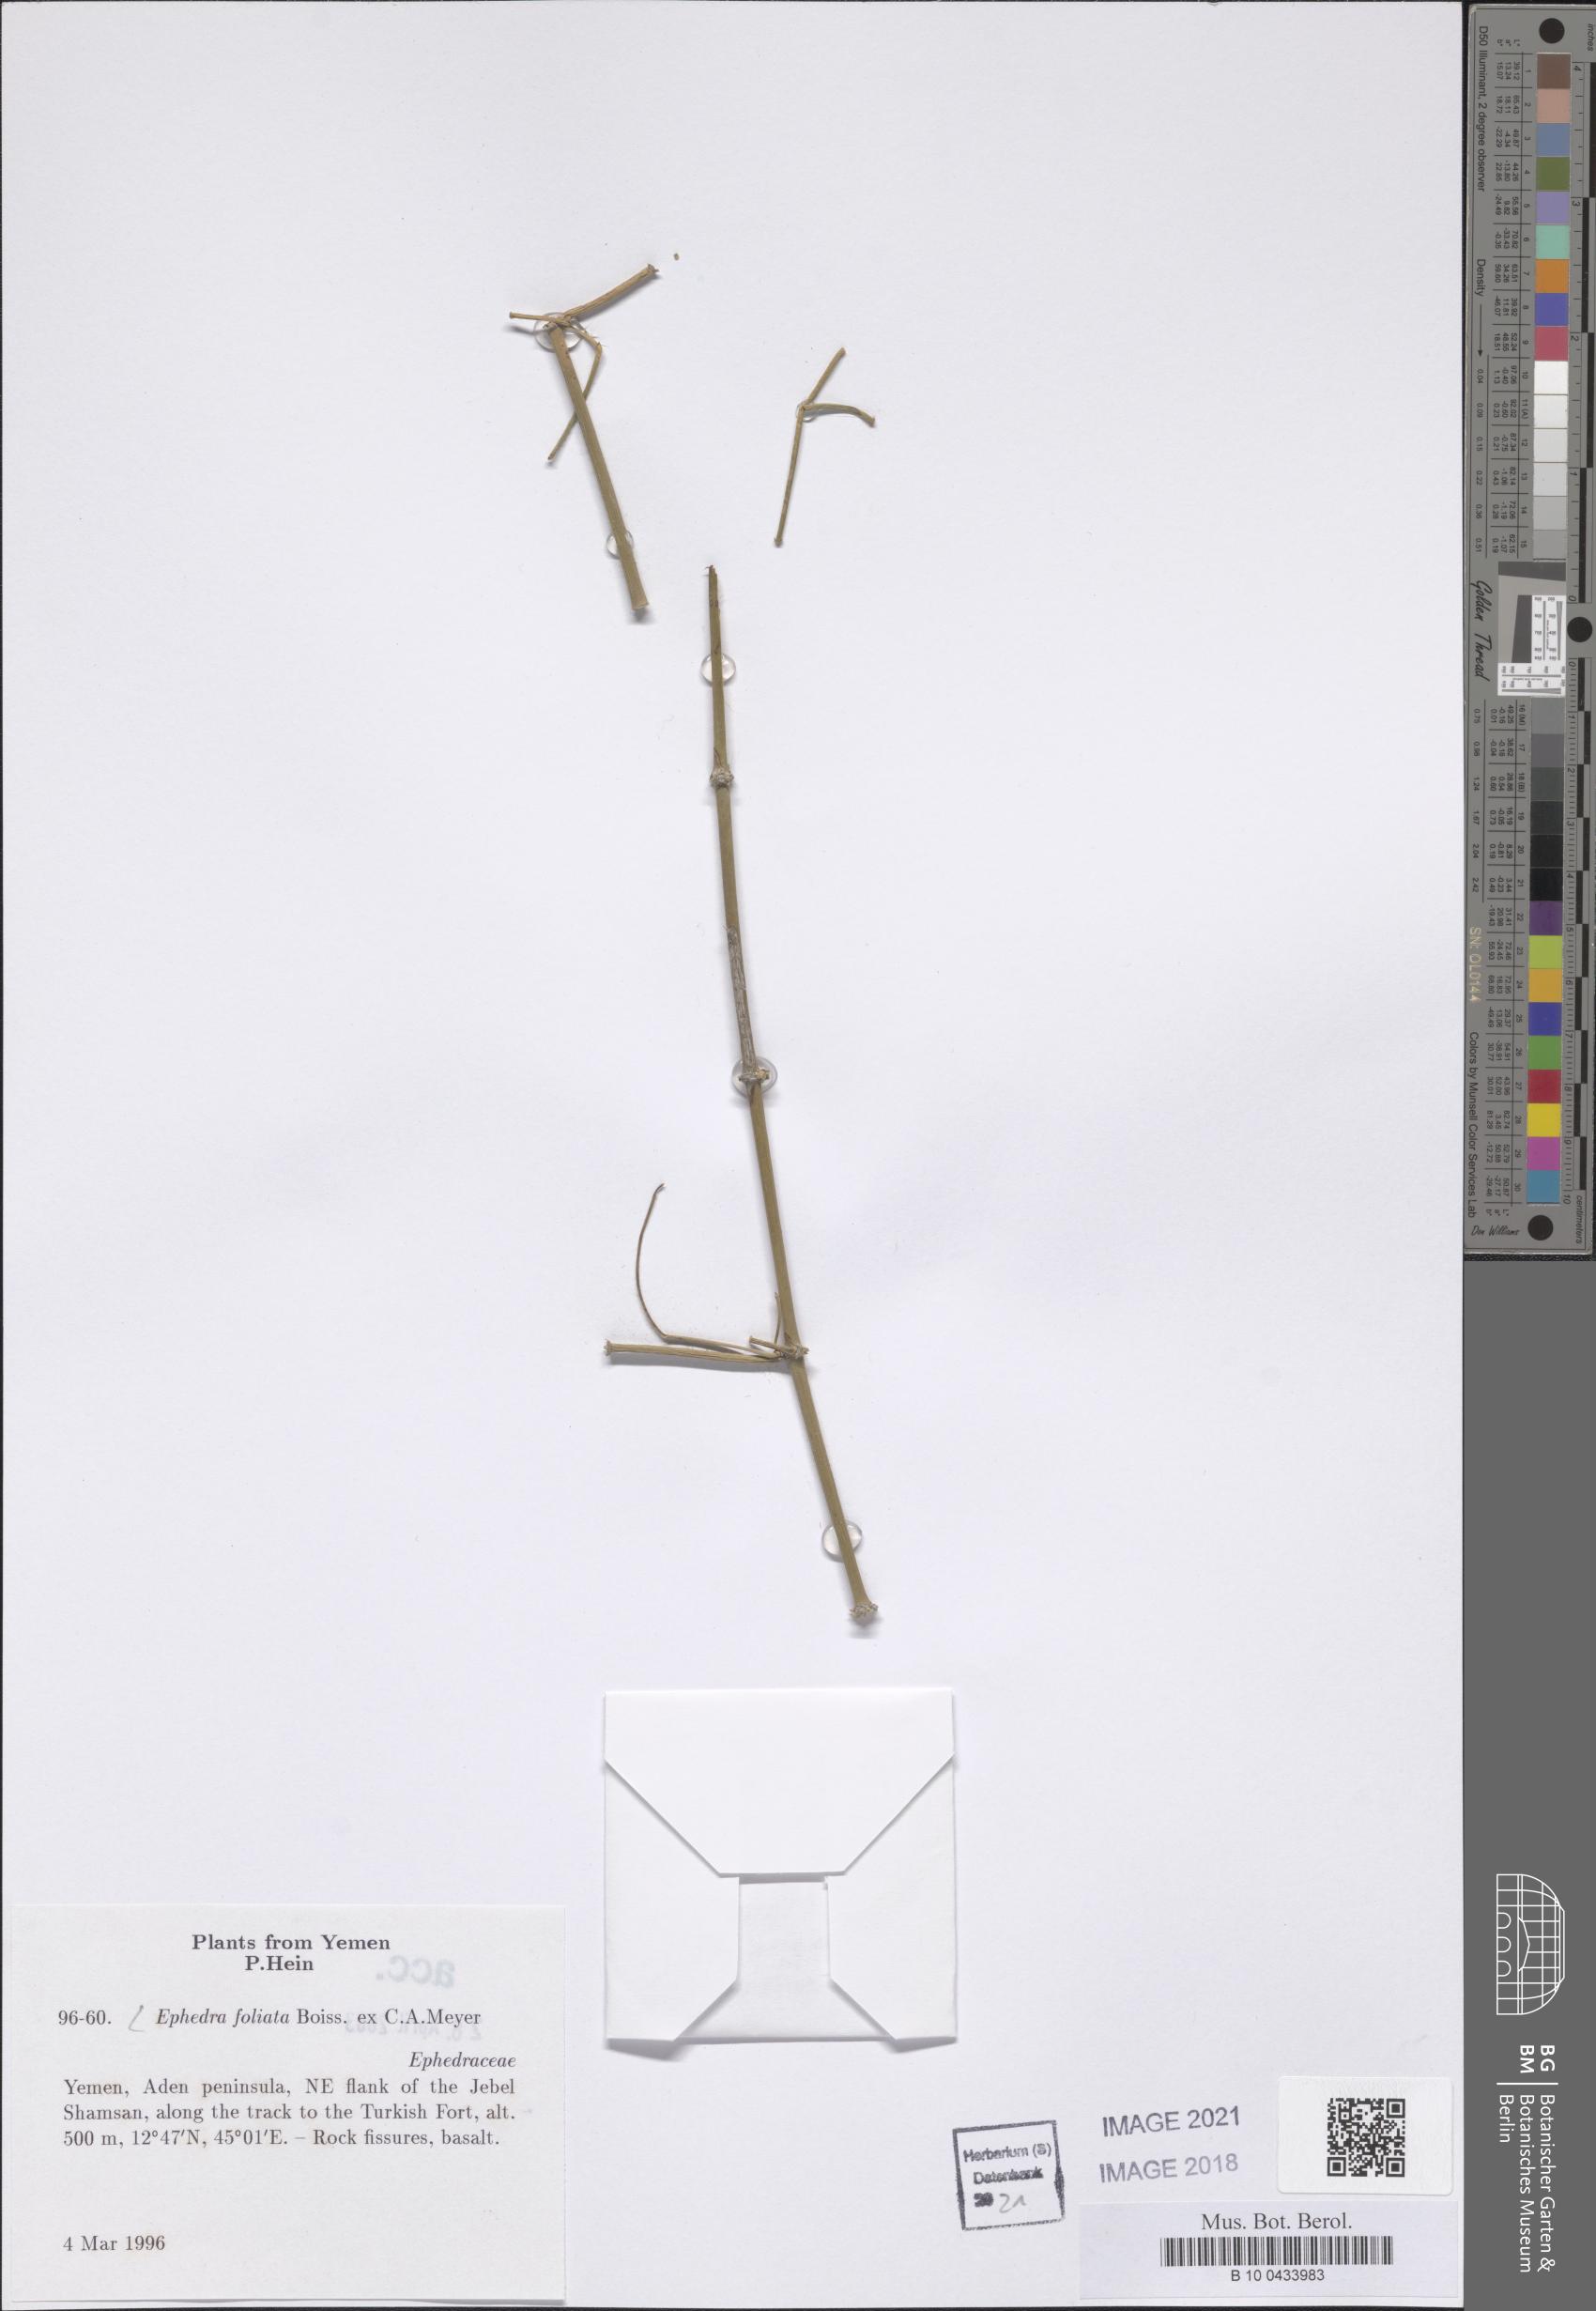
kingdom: Plantae
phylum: Tracheophyta
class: Gnetopsida
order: Ephedrales
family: Ephedraceae
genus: Ephedra
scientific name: Ephedra ciliata
